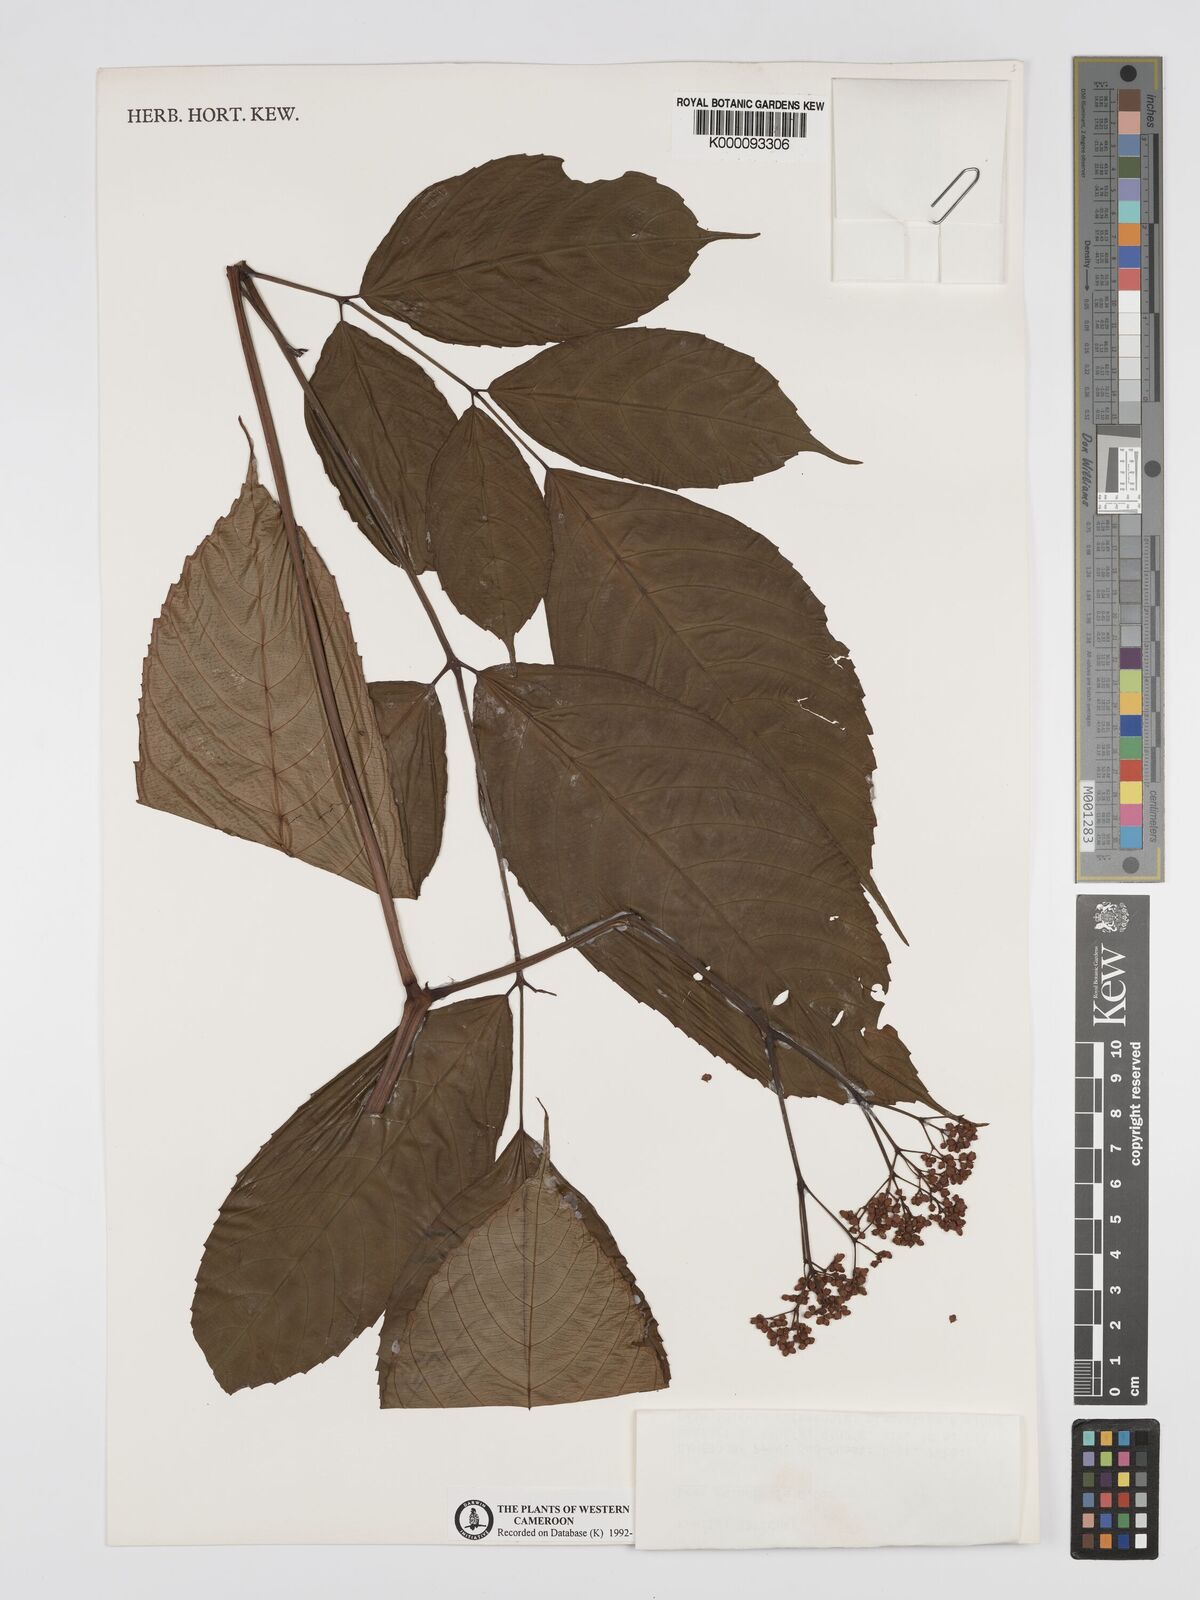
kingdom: Plantae
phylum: Tracheophyta
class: Magnoliopsida
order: Vitales
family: Vitaceae
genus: Leea
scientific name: Leea guineensis
